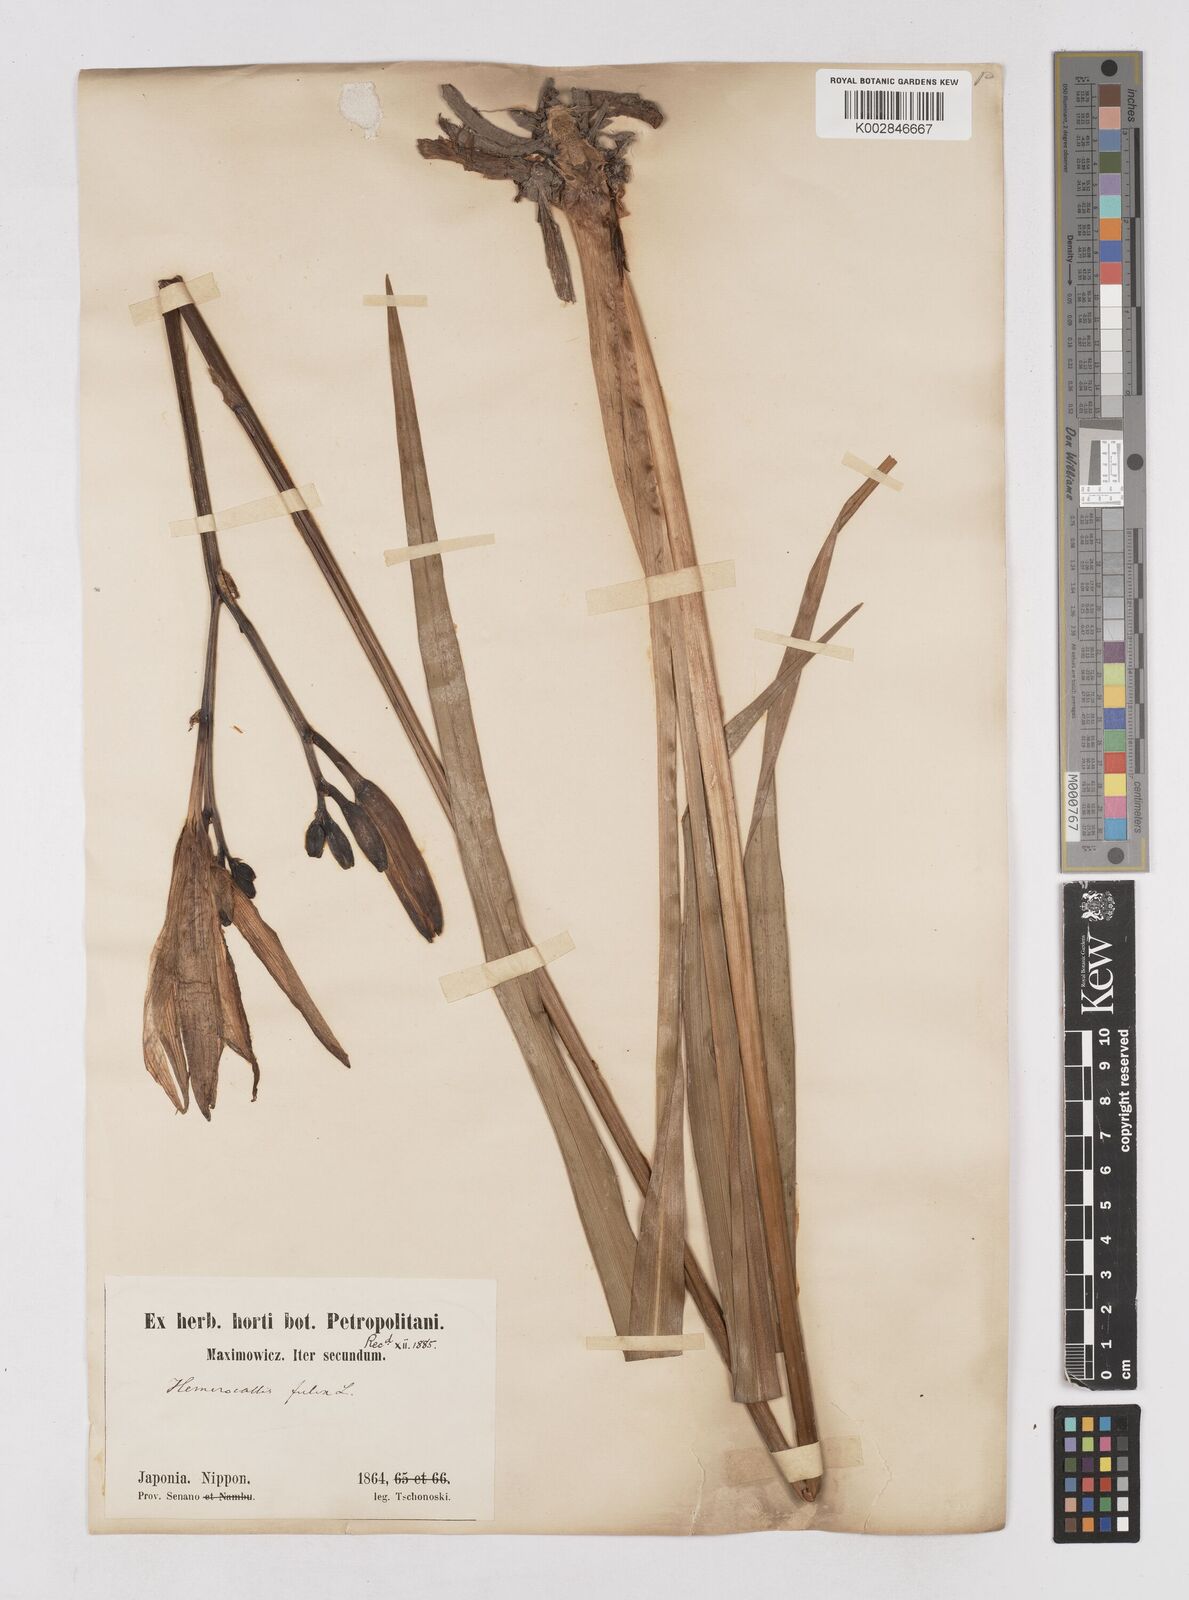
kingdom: Plantae
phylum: Tracheophyta
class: Liliopsida
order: Asparagales
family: Asphodelaceae
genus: Hemerocallis
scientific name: Hemerocallis fulva
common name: Orange day-lily
